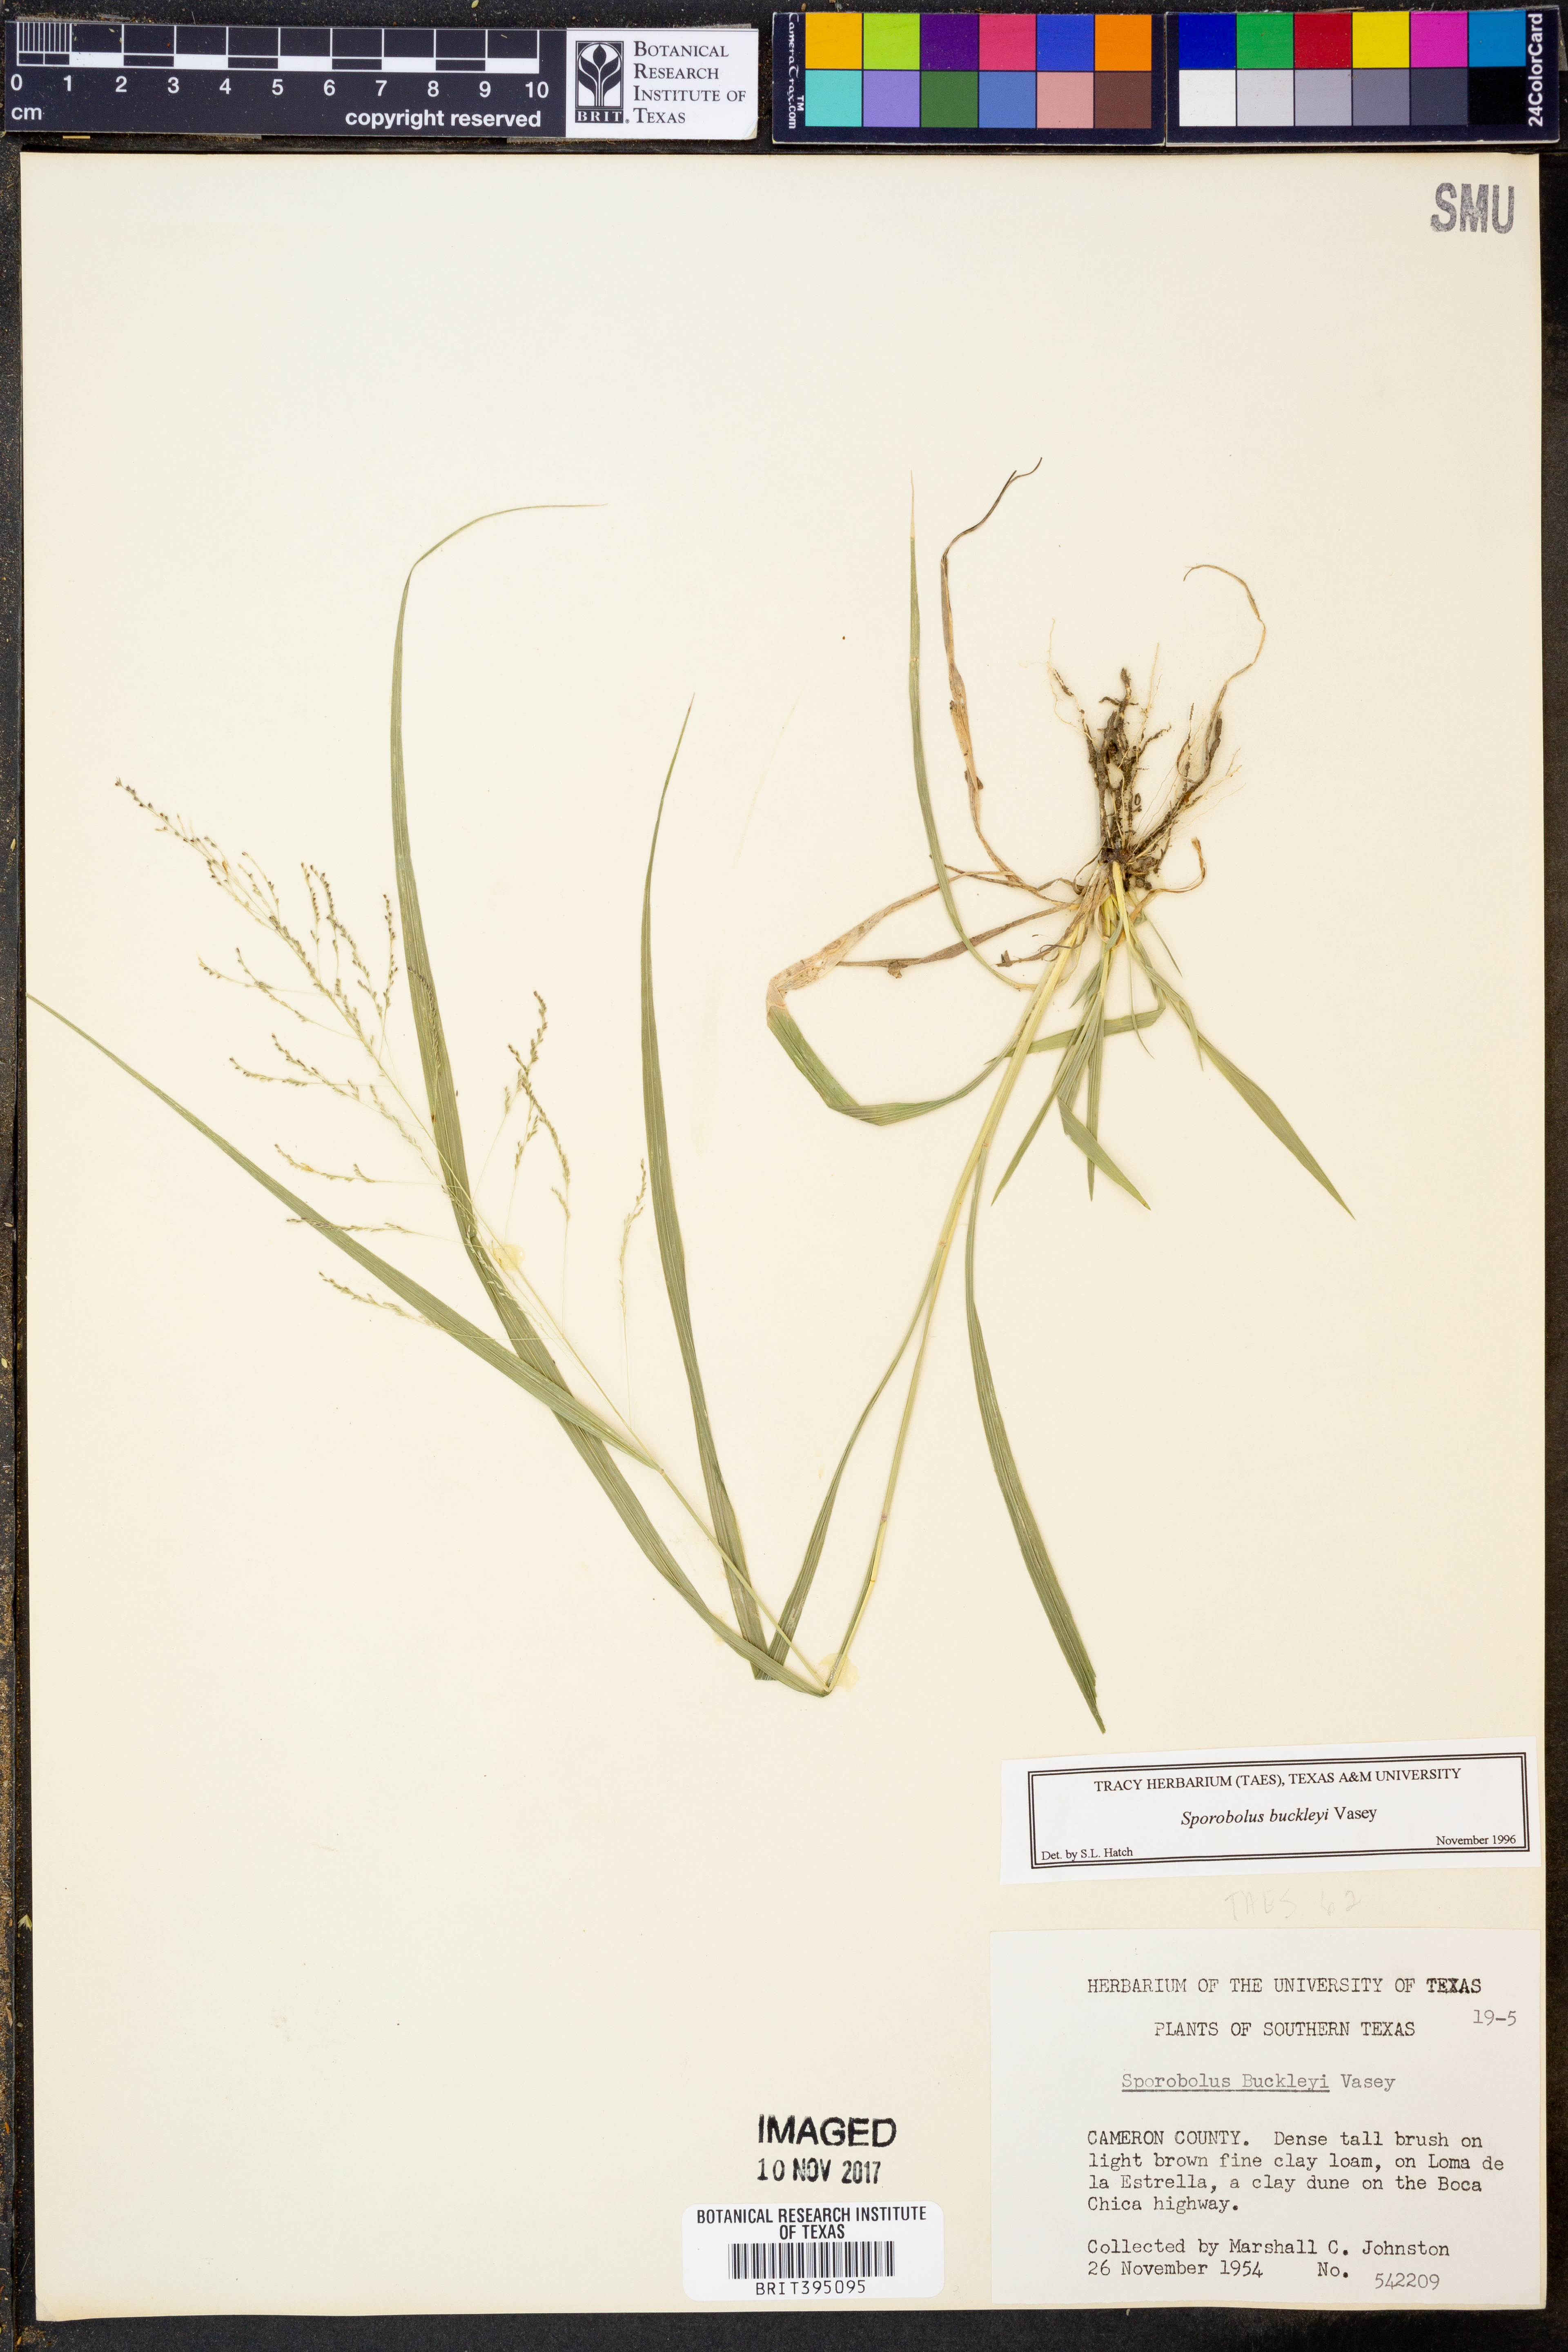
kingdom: Plantae
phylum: Tracheophyta
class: Liliopsida
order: Poales
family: Poaceae
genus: Sporobolus
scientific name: Sporobolus buckleyi
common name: Buckley's dropseed
